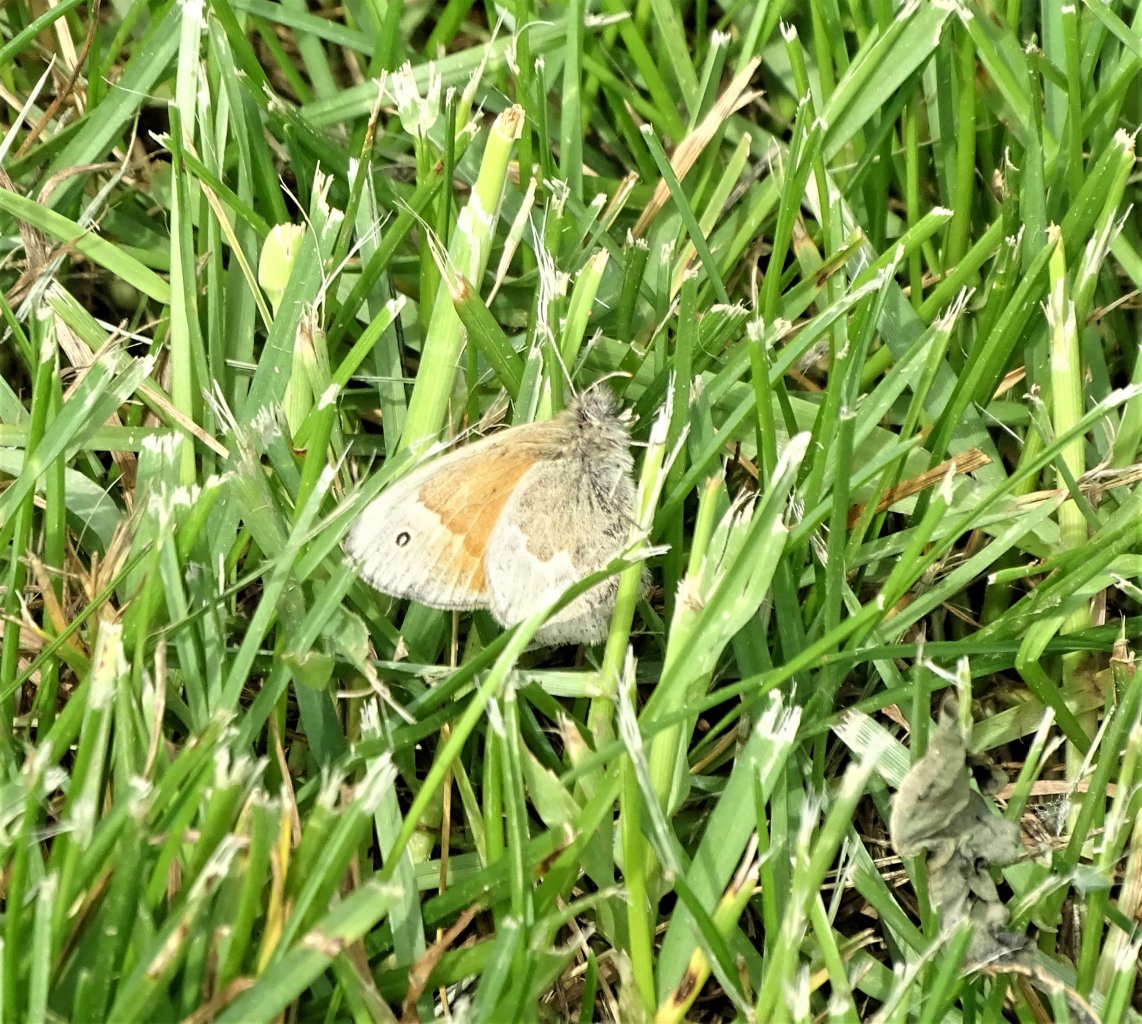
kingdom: Animalia
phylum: Arthropoda
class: Insecta
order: Lepidoptera
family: Nymphalidae
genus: Coenonympha
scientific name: Coenonympha tullia
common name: Large Heath
